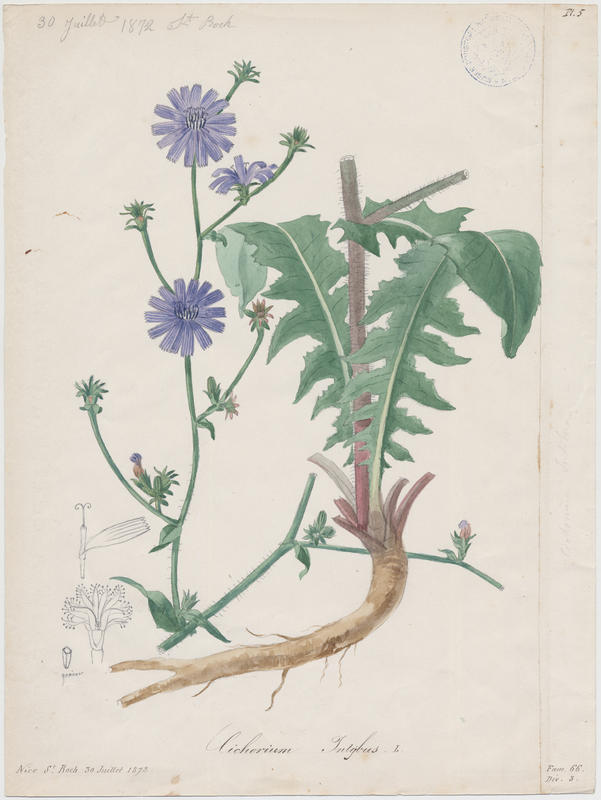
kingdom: Plantae
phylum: Tracheophyta
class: Magnoliopsida
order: Asterales
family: Asteraceae
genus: Cichorium
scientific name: Cichorium intybus
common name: Chicory
